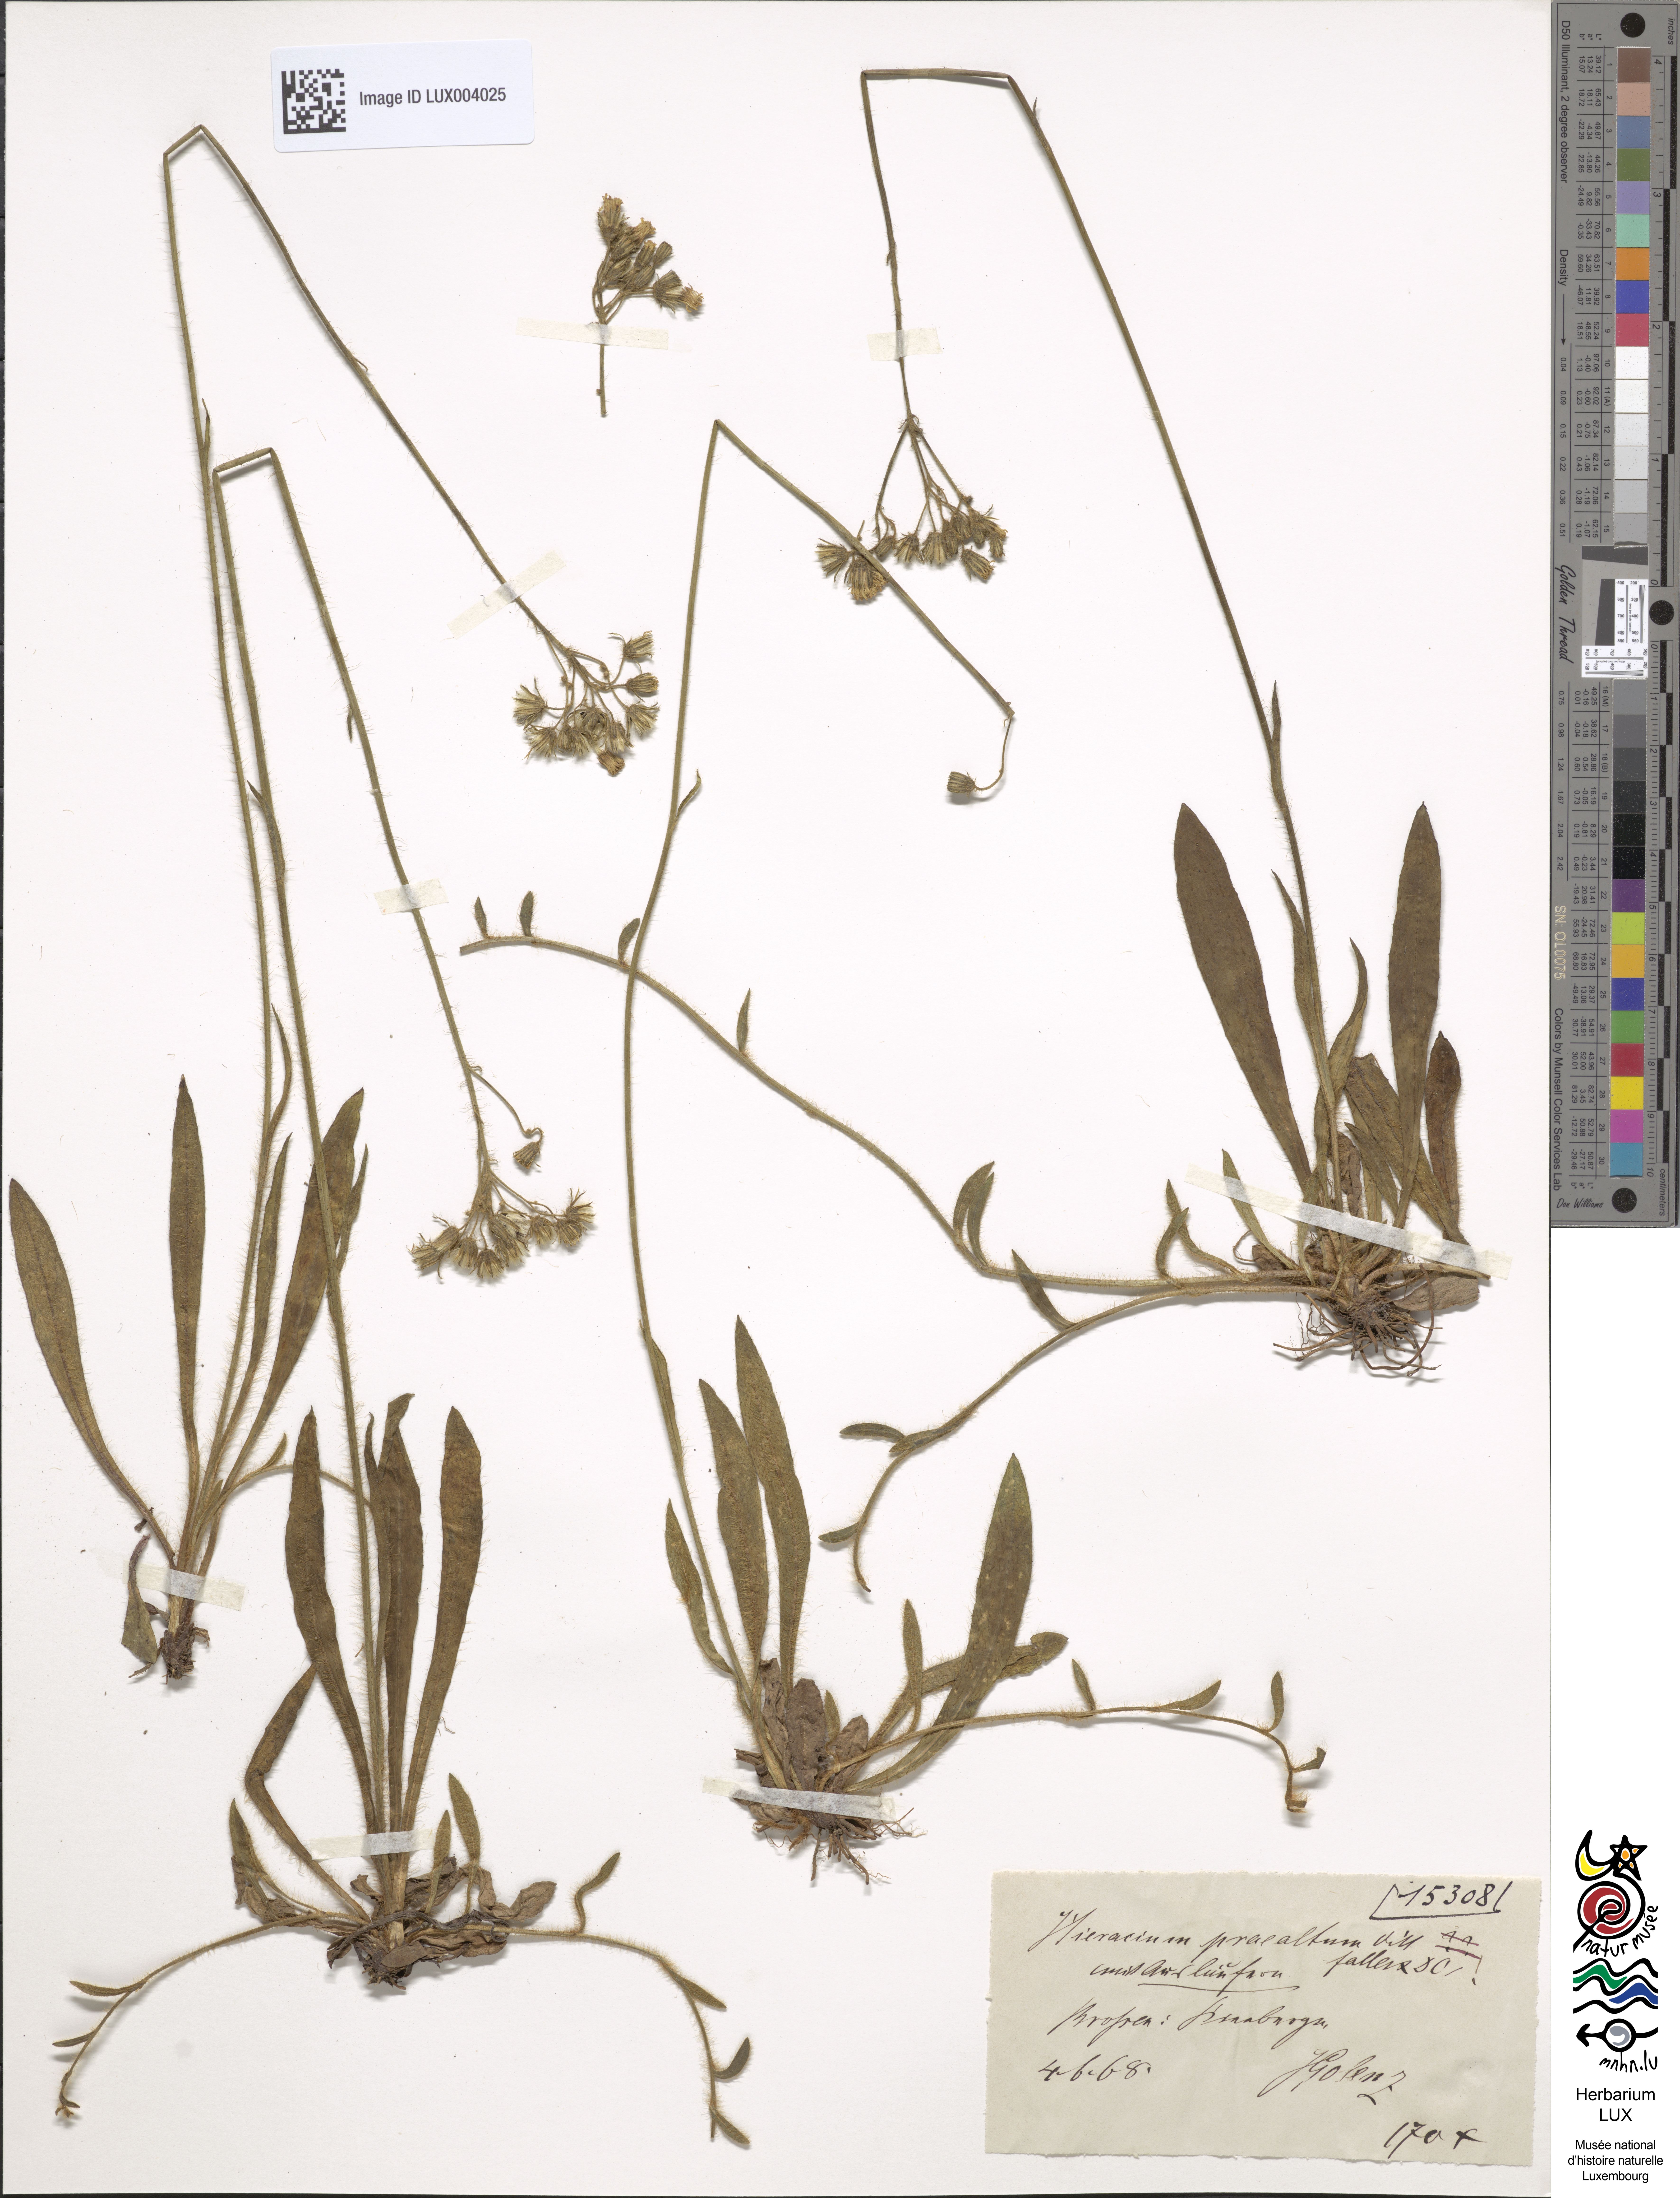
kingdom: Plantae
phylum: Tracheophyta
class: Magnoliopsida
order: Asterales
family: Asteraceae
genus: Pilosella
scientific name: Pilosella piloselloides
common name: Glaucous king-devil
